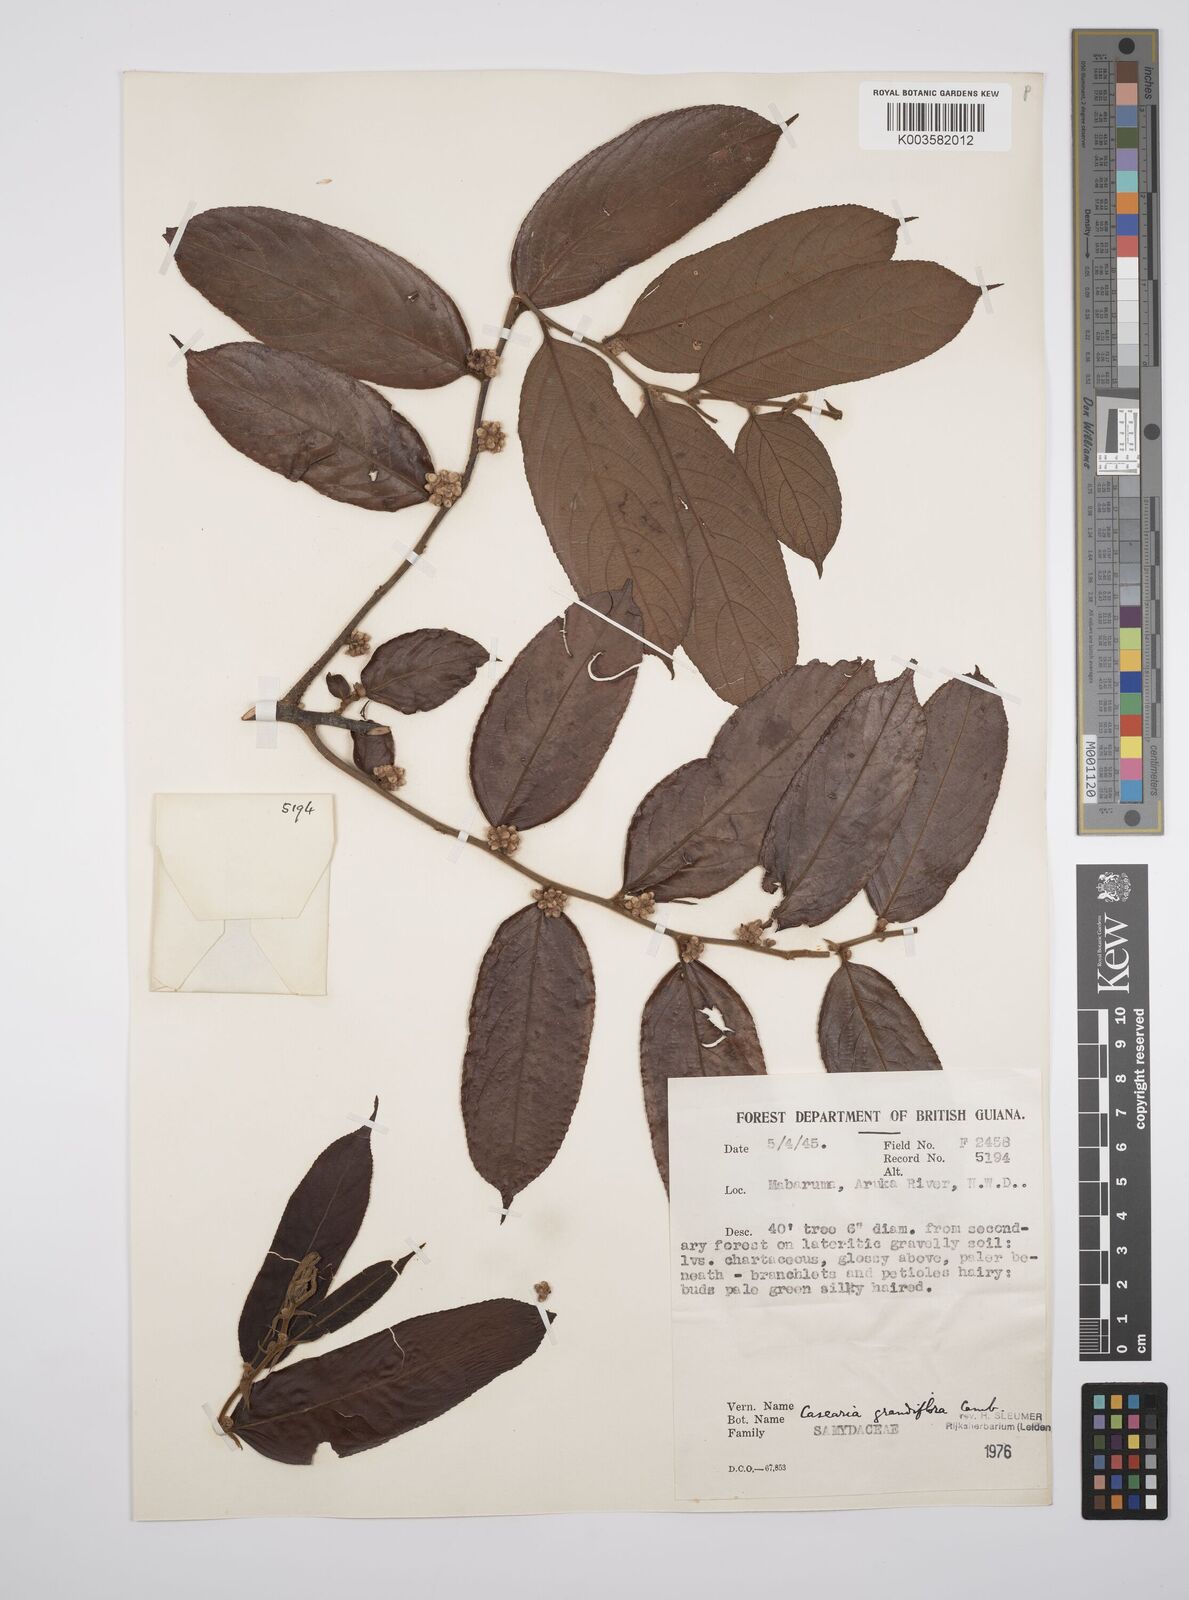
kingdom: Plantae
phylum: Tracheophyta
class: Magnoliopsida
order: Malpighiales
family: Salicaceae
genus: Casearia
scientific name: Casearia grandiflora
